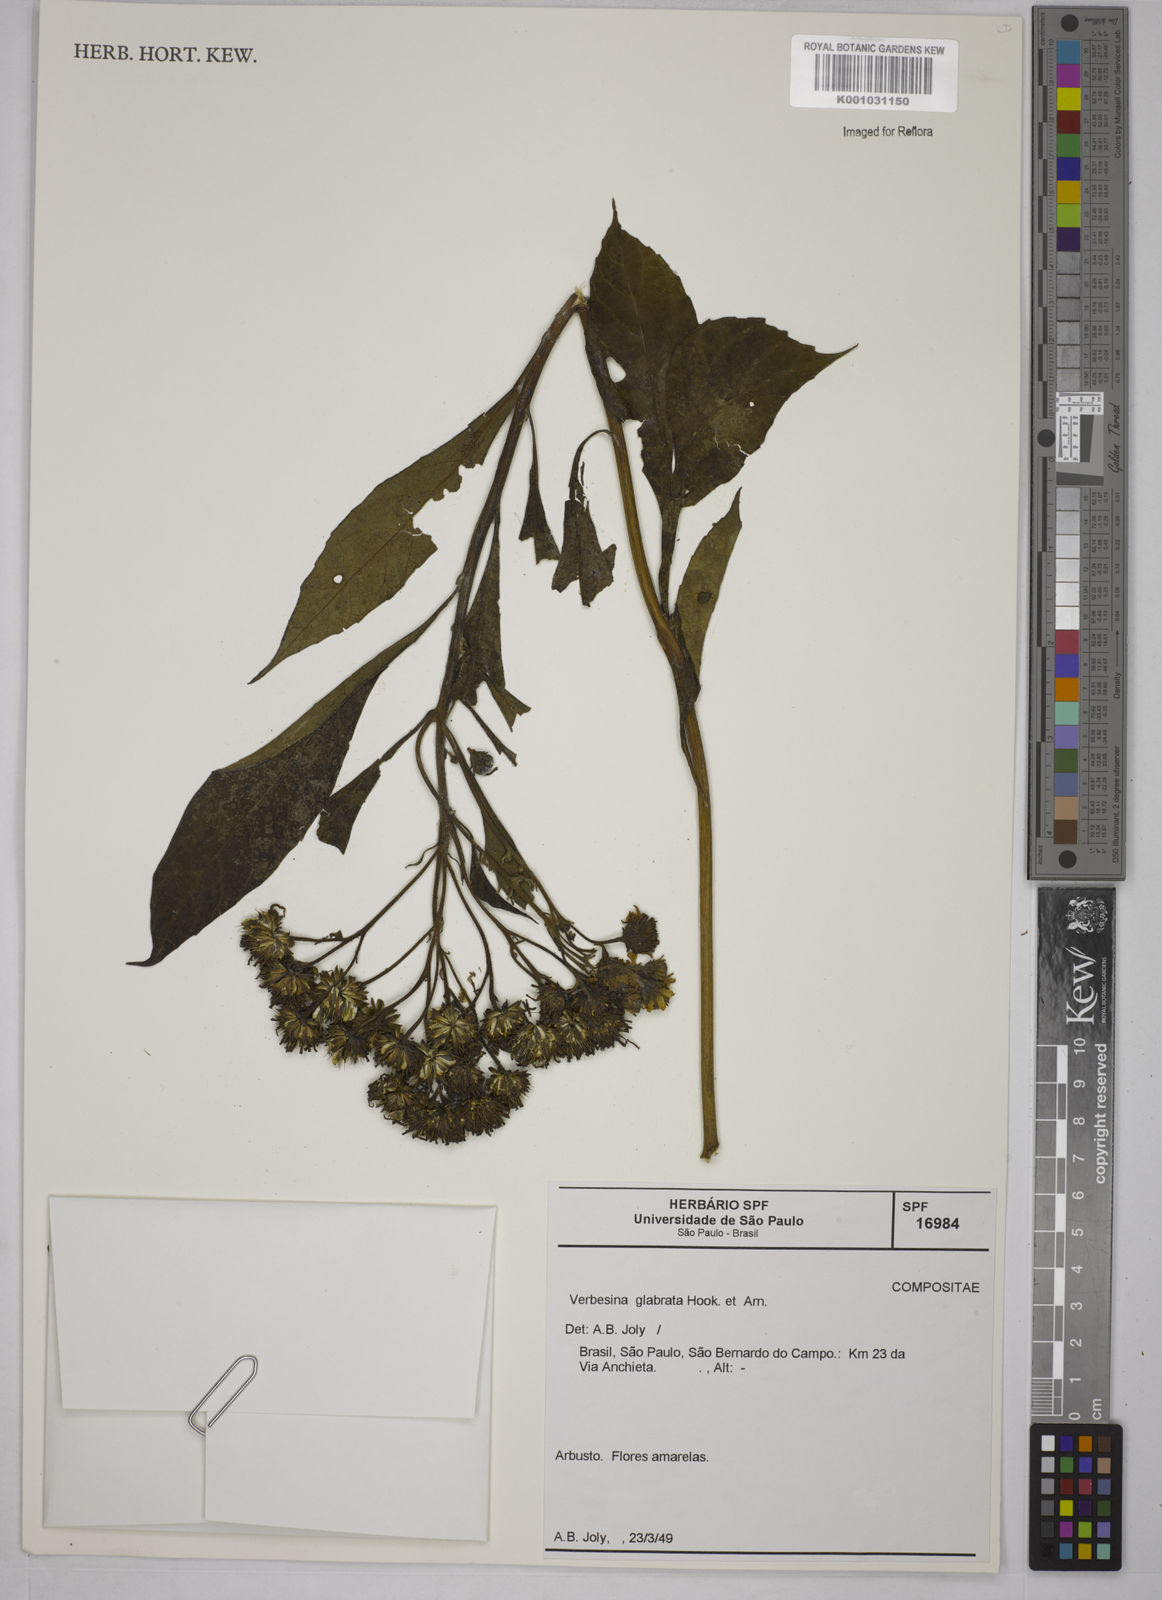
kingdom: Plantae
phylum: Tracheophyta
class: Magnoliopsida
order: Asterales
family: Asteraceae
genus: Verbesina
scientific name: Verbesina glabrata
